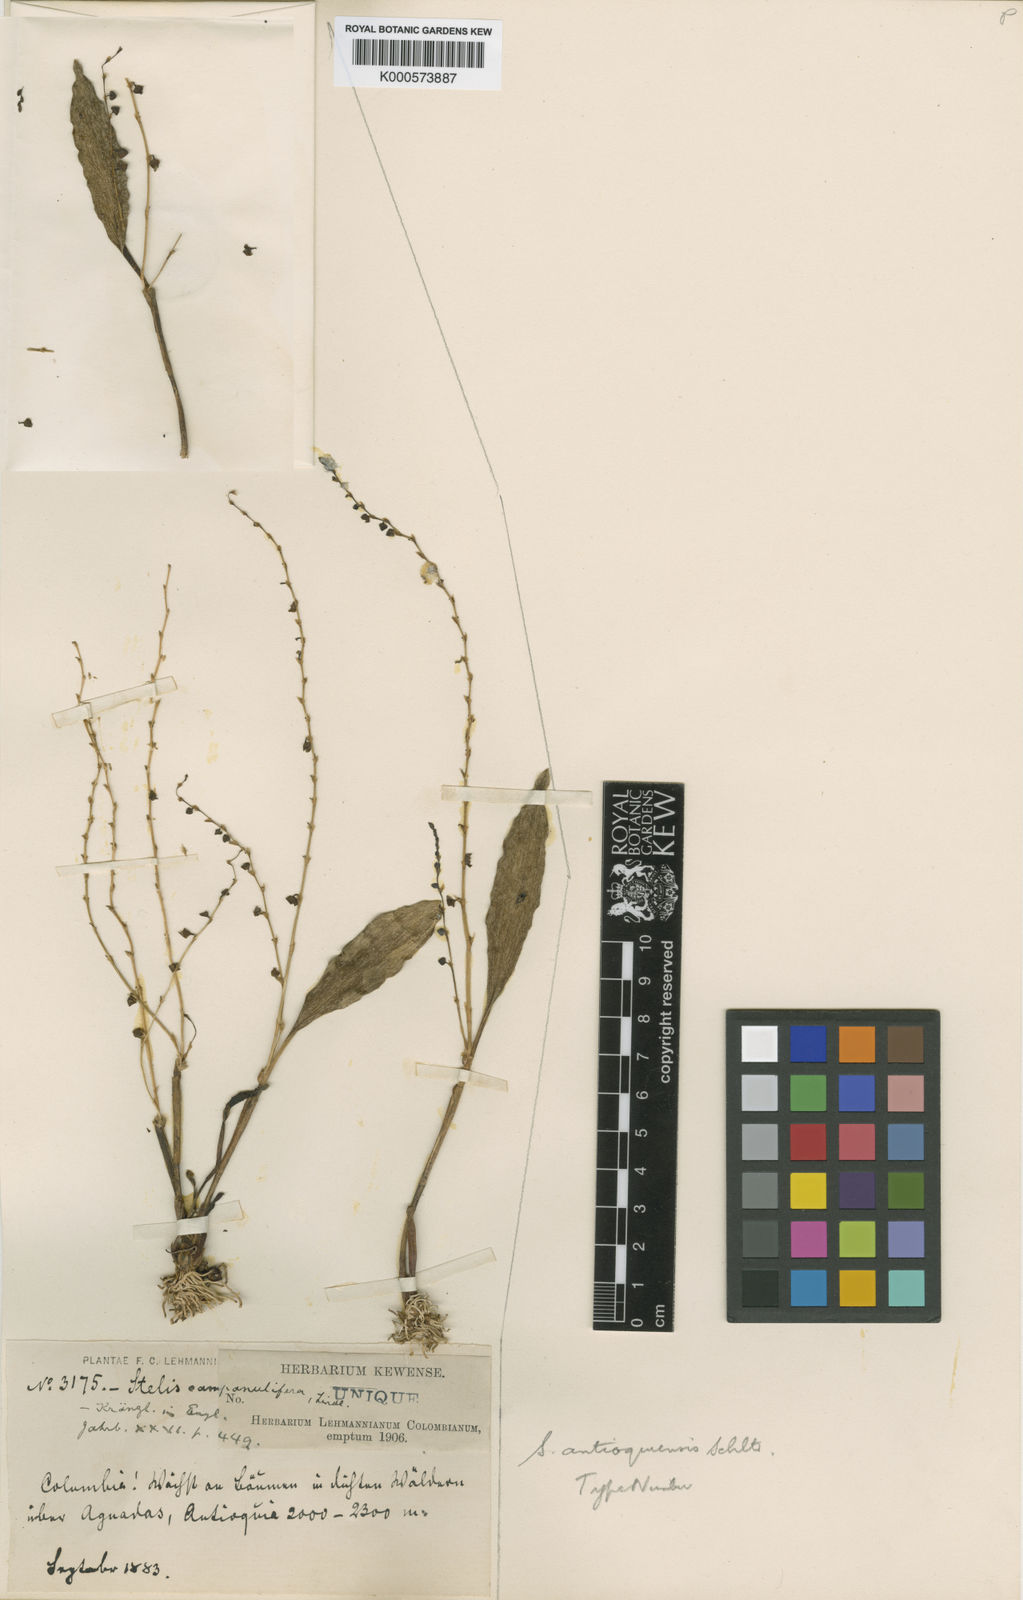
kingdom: Plantae
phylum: Tracheophyta
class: Liliopsida
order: Asparagales
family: Orchidaceae
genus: Stelis
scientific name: Stelis antioquiensis
